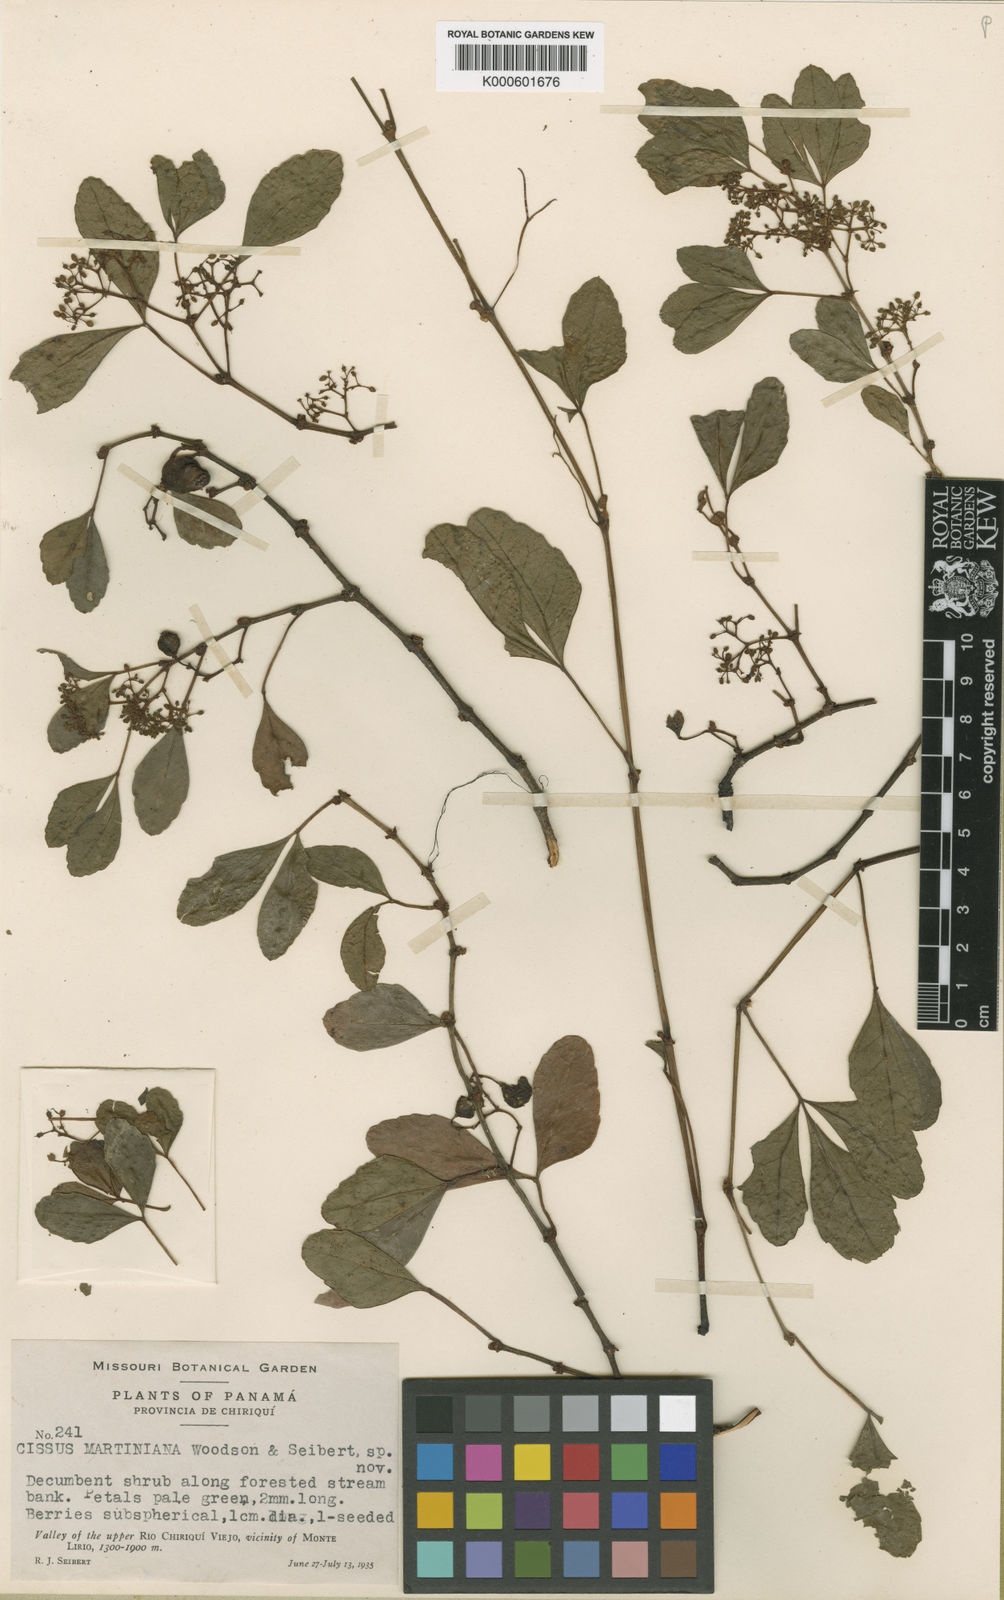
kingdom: Plantae
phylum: Tracheophyta
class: Magnoliopsida
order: Vitales
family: Vitaceae
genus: Cissus
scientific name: Cissus trianae
